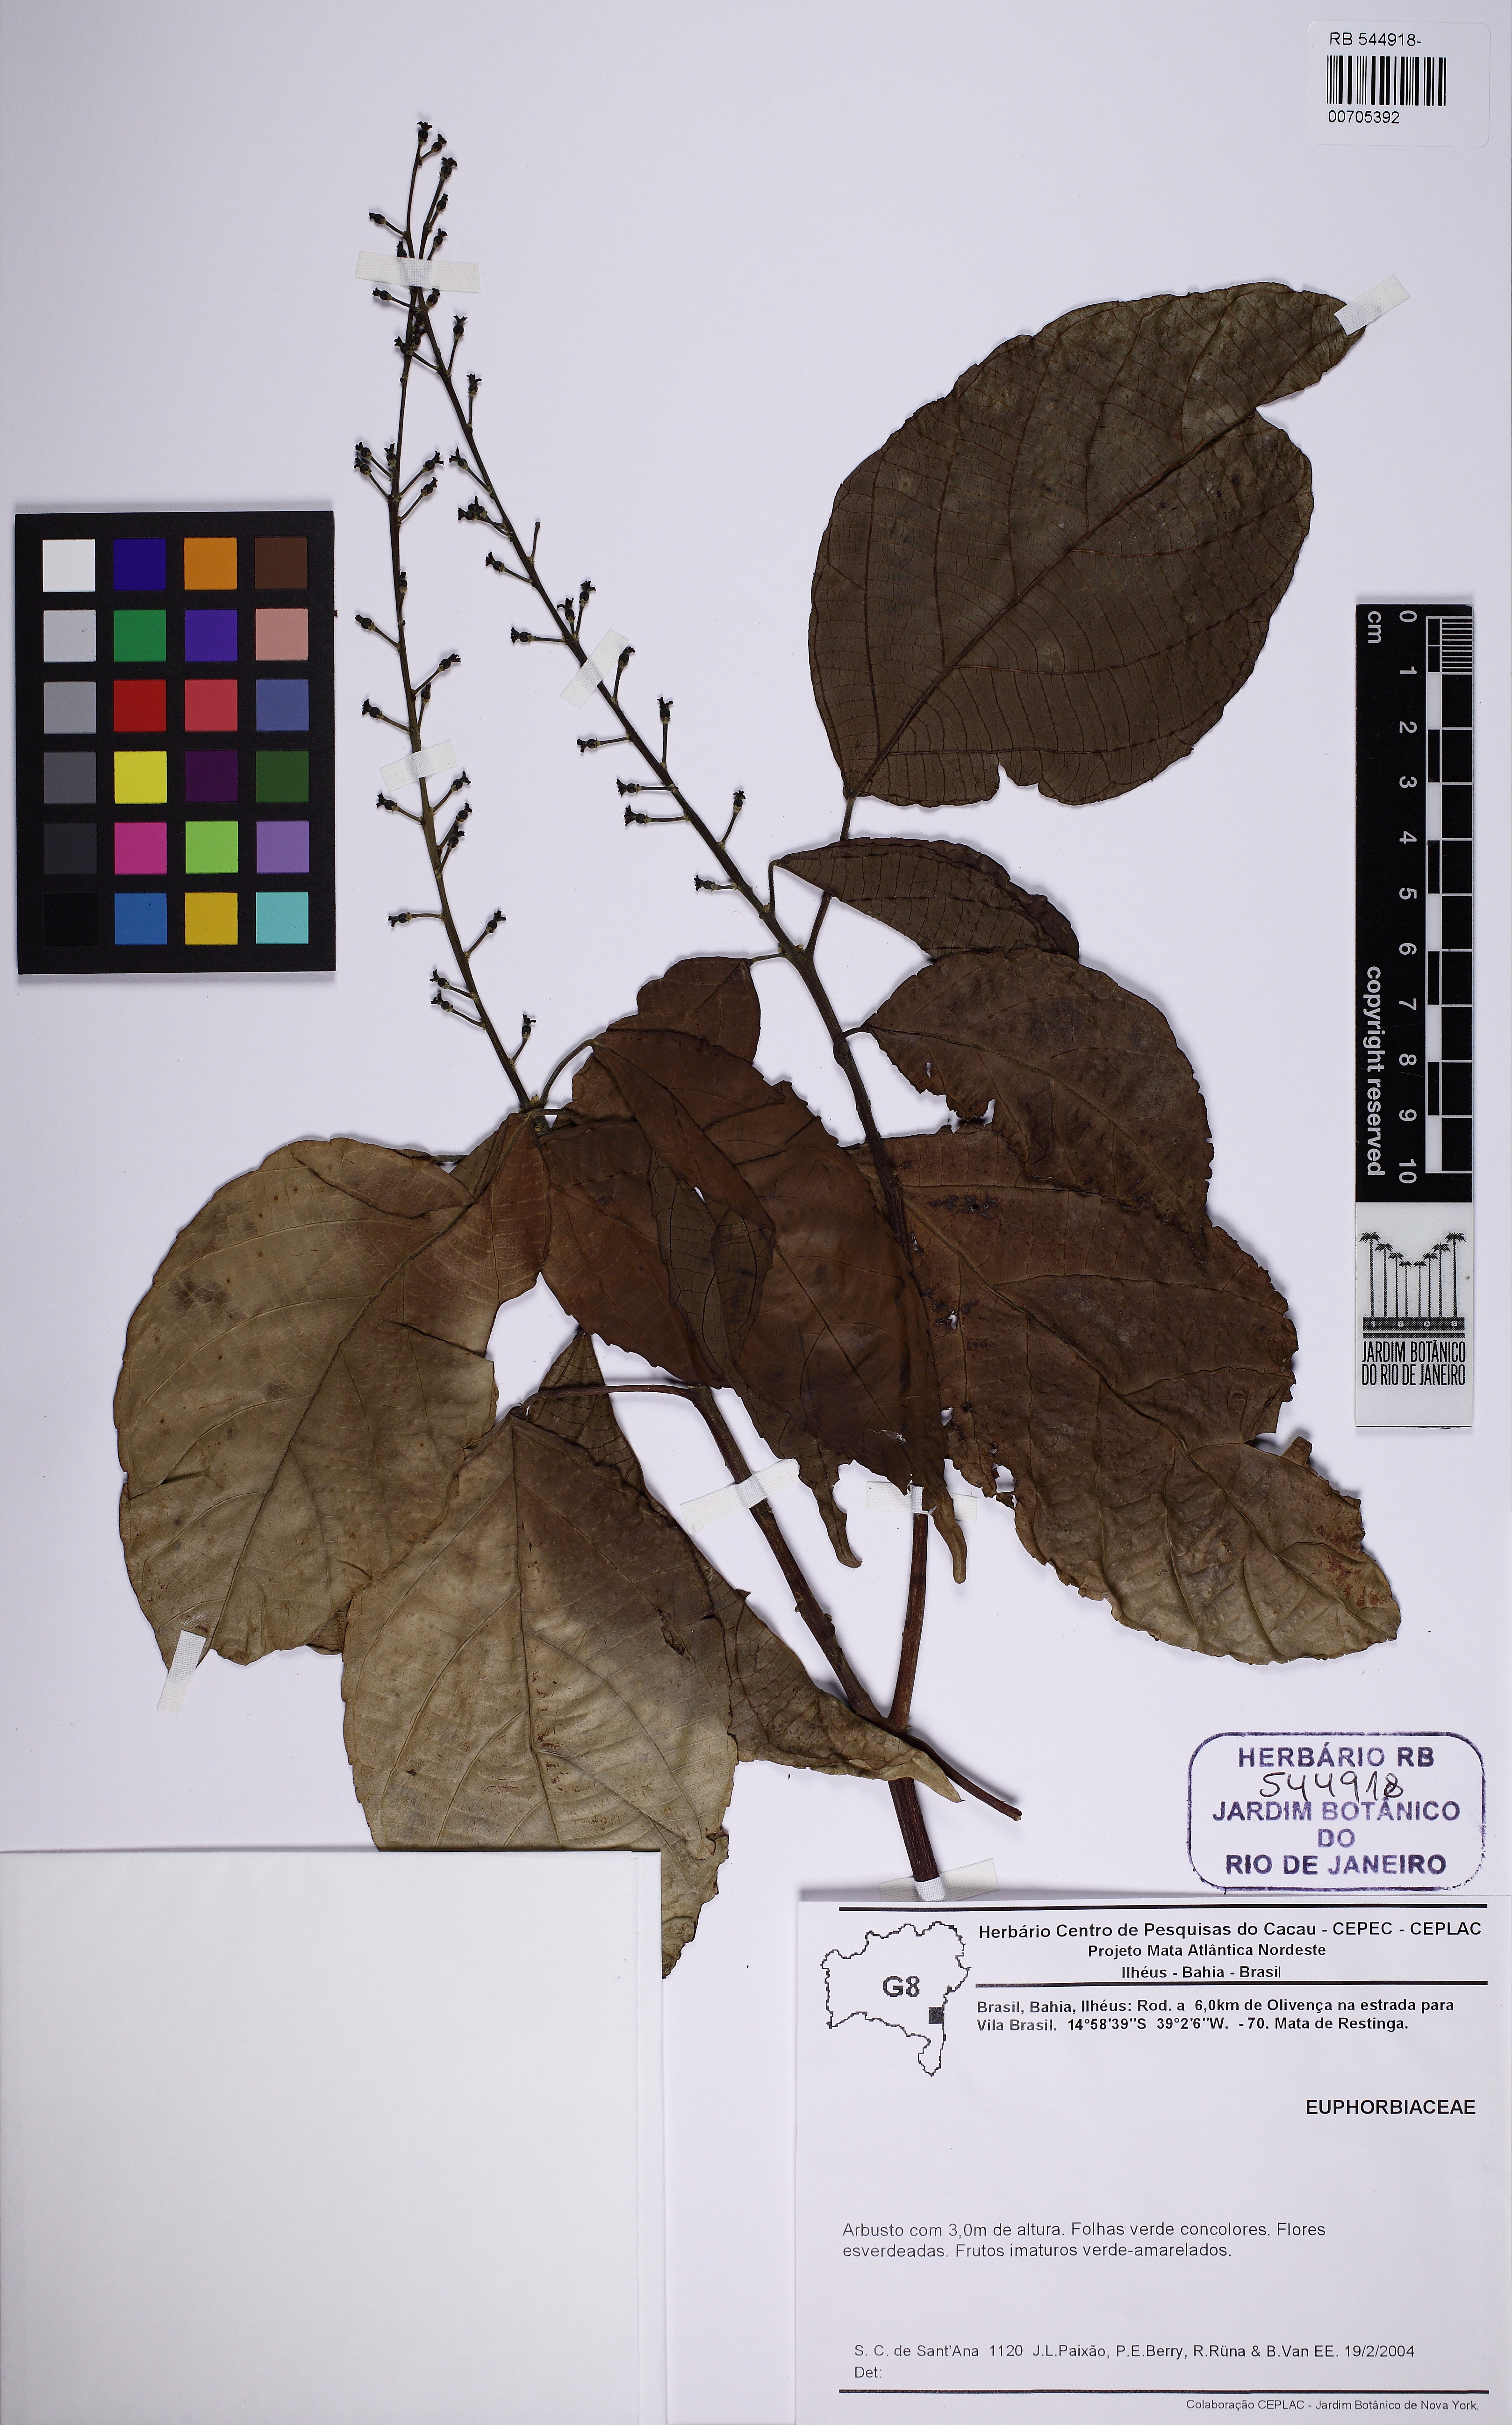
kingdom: Plantae
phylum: Tracheophyta
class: Magnoliopsida
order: Malpighiales
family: Euphorbiaceae
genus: Aparisthmium
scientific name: Aparisthmium cordatum
